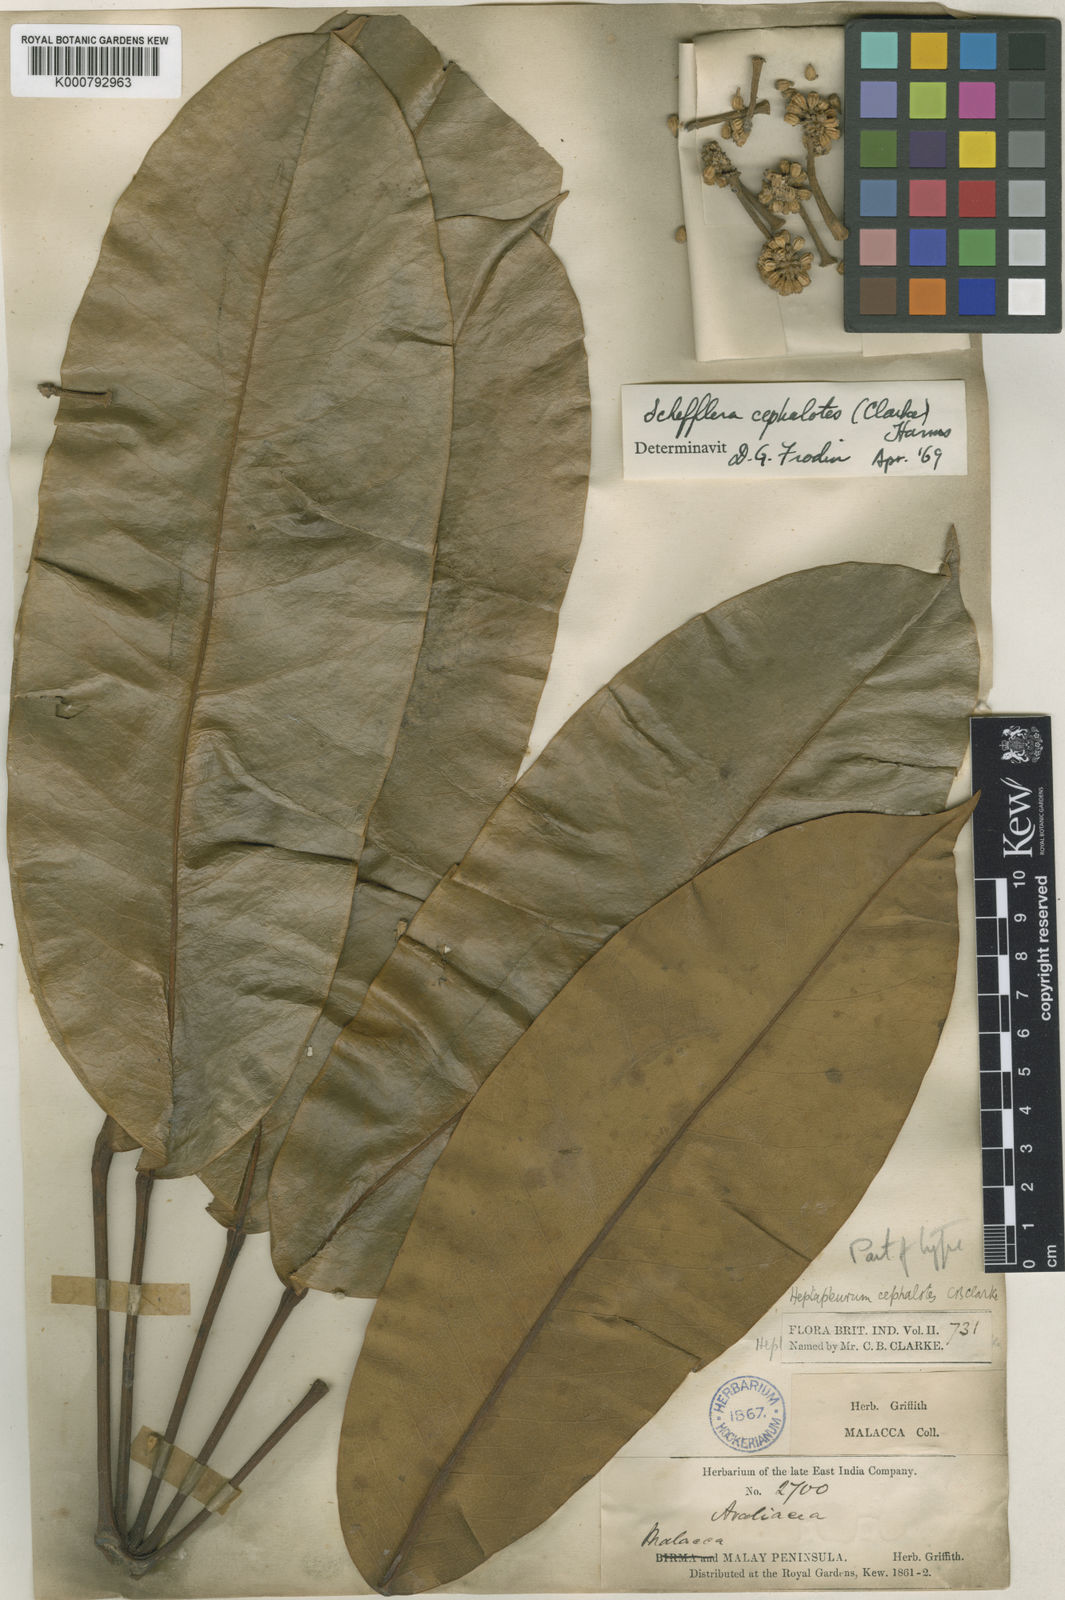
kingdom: Plantae
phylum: Tracheophyta
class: Magnoliopsida
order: Apiales
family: Araliaceae
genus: Heptapleurum
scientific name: Heptapleurum cephalotes
